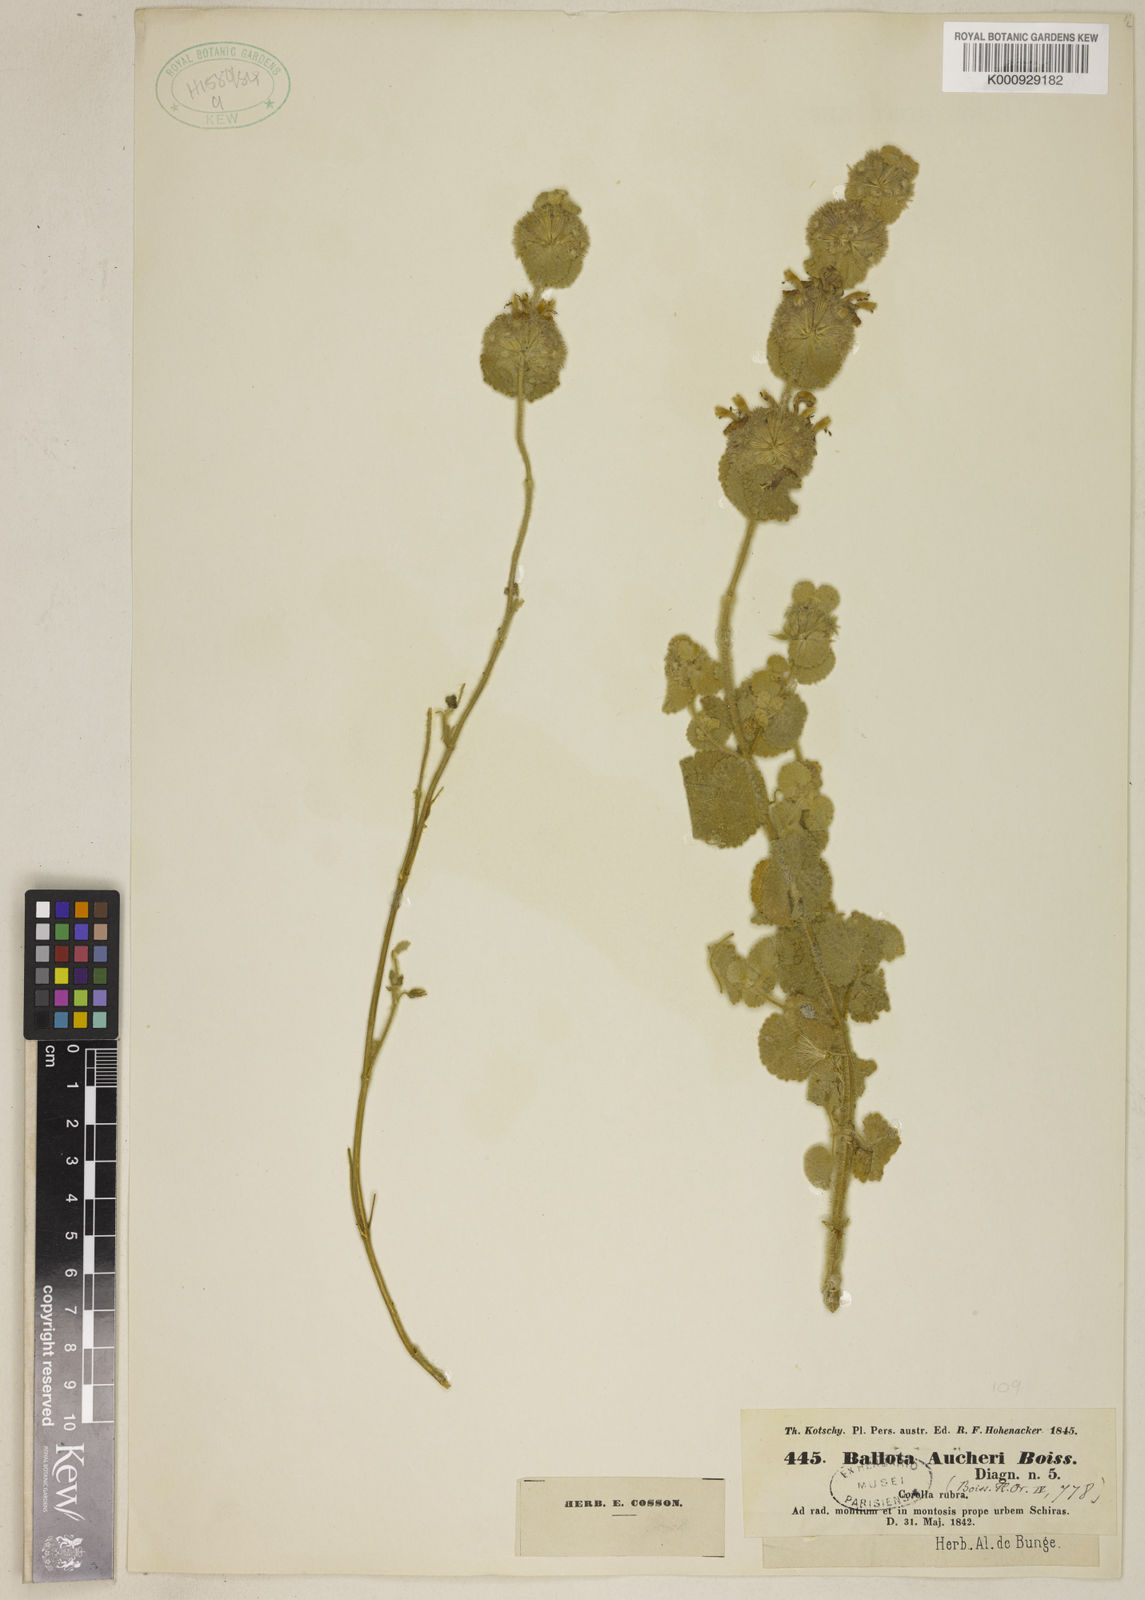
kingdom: Plantae
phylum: Tracheophyta
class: Magnoliopsida
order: Lamiales
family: Lamiaceae
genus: Pseudodictamnus
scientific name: Pseudodictamnus aucheri
